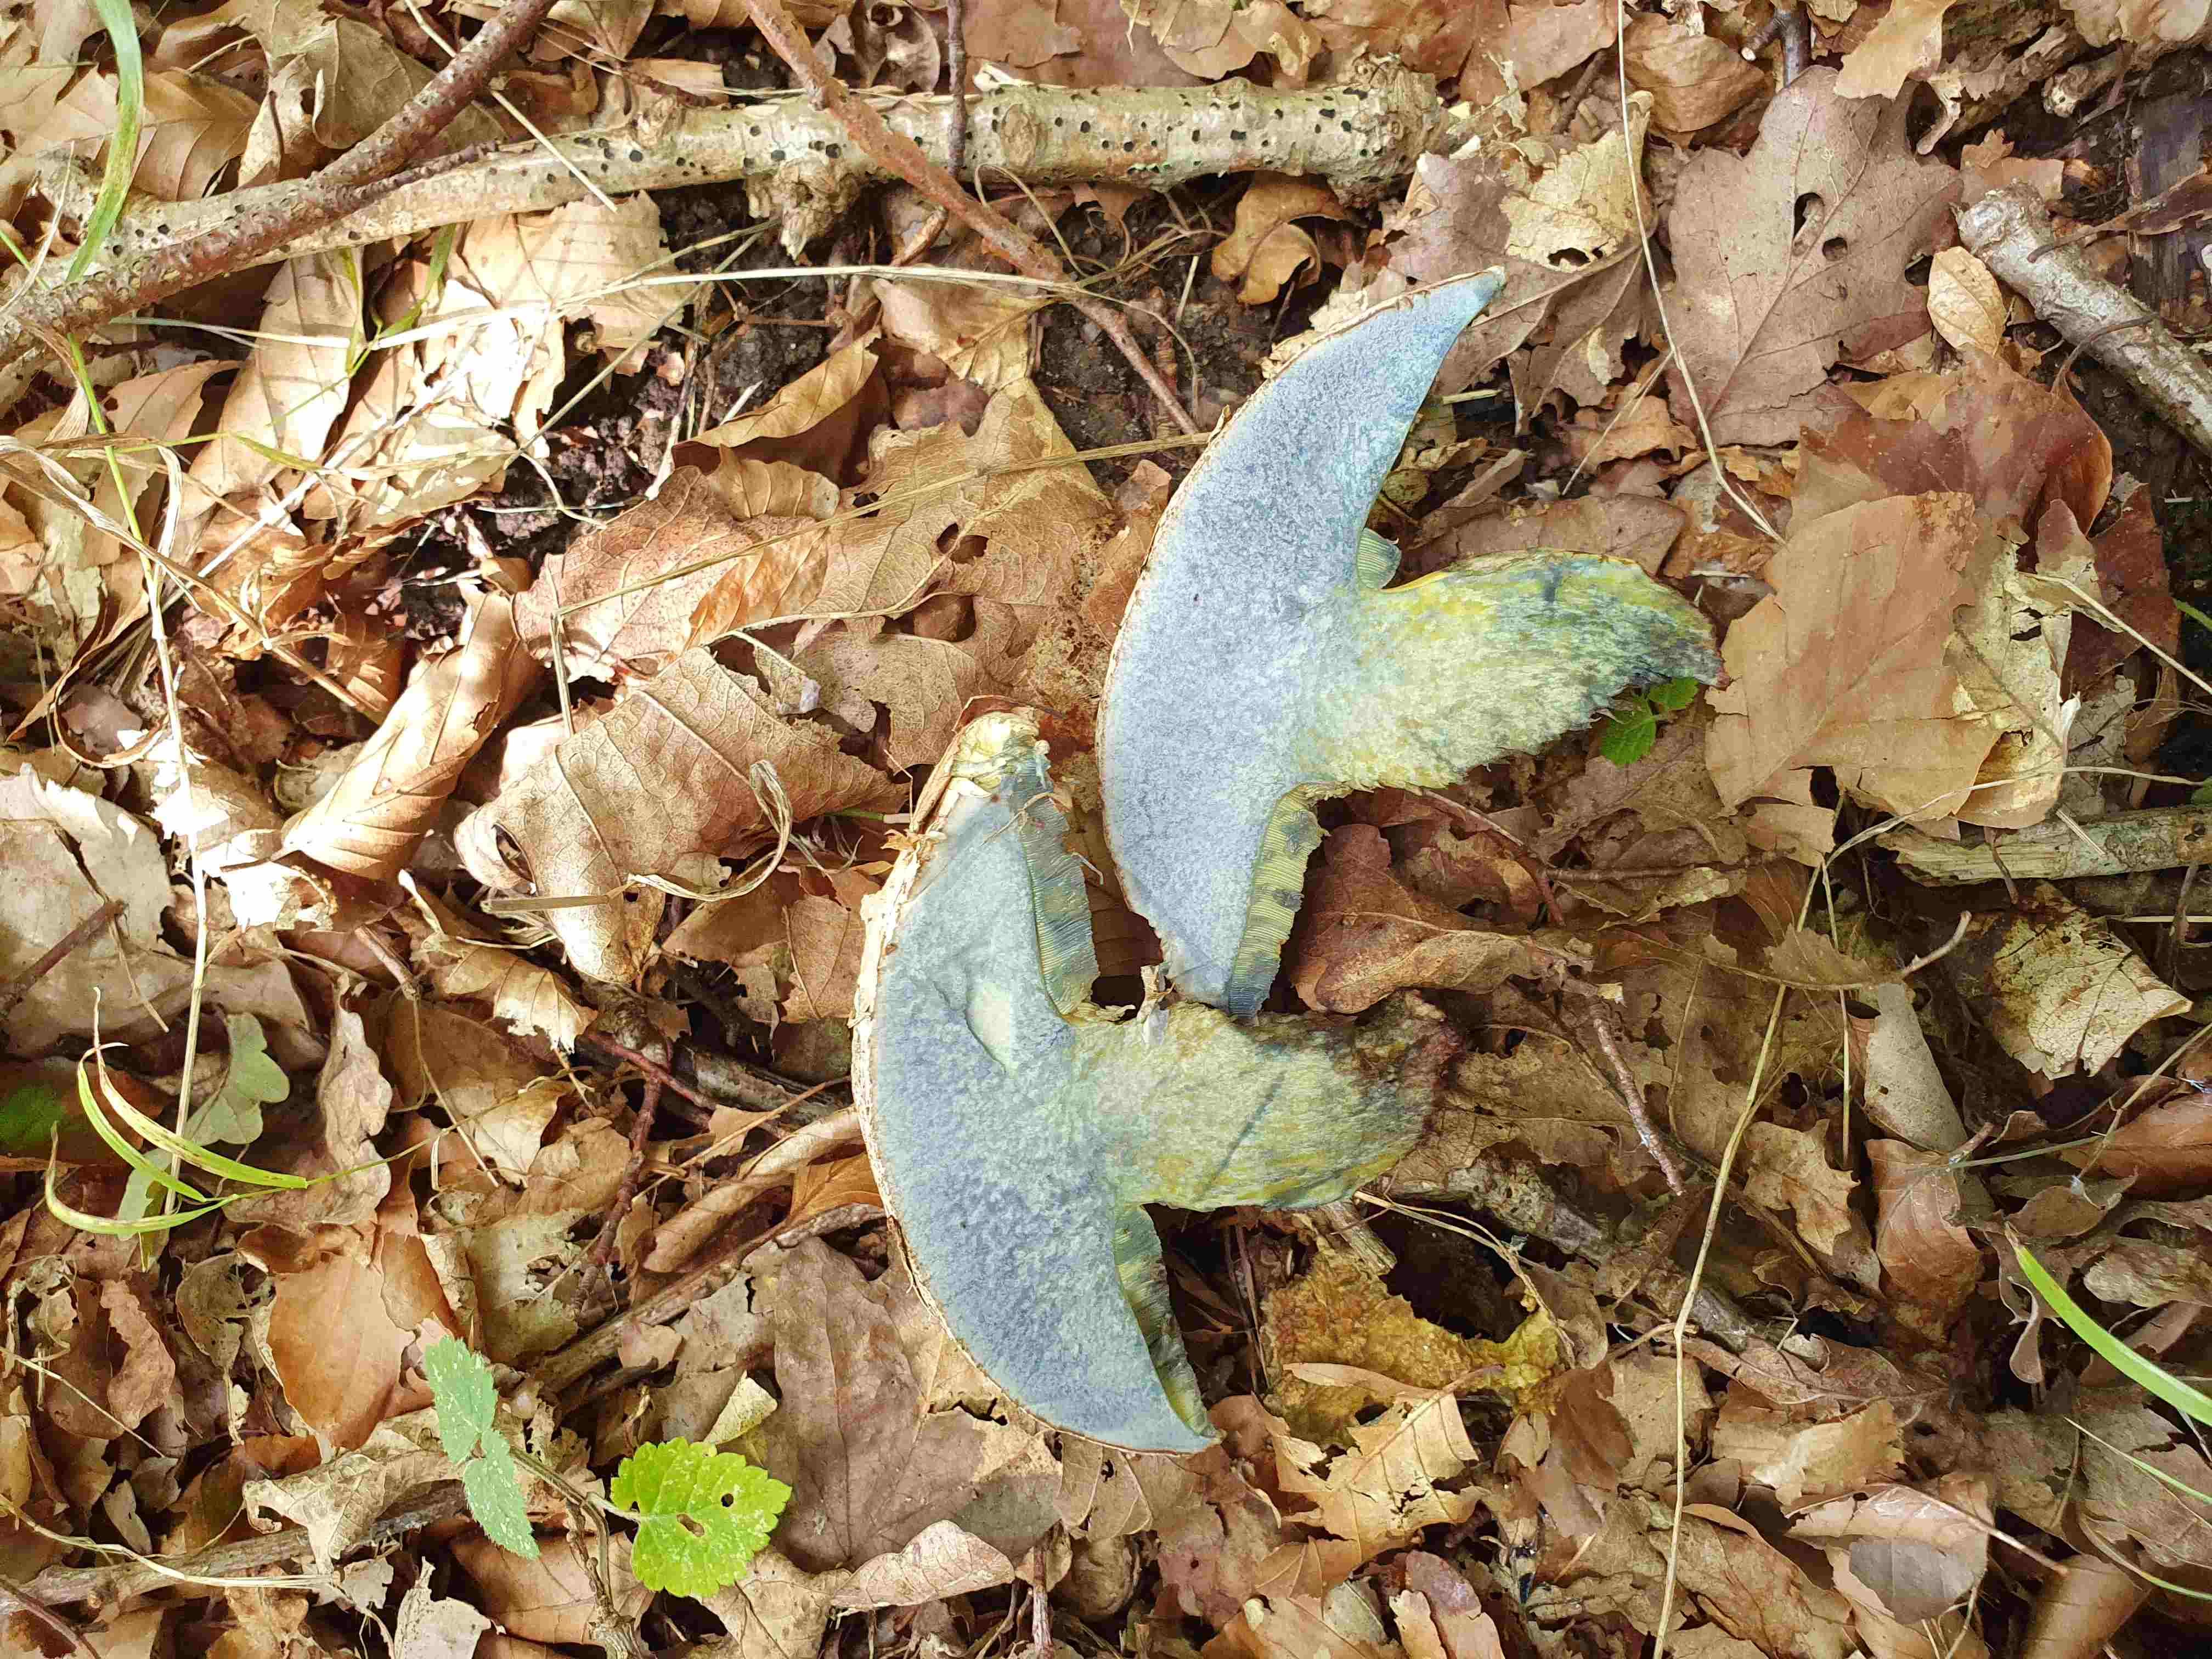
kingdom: Fungi
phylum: Basidiomycota
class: Agaricomycetes
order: Boletales
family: Boletaceae
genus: Caloboletus
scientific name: Caloboletus radicans
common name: rod-rørhat
